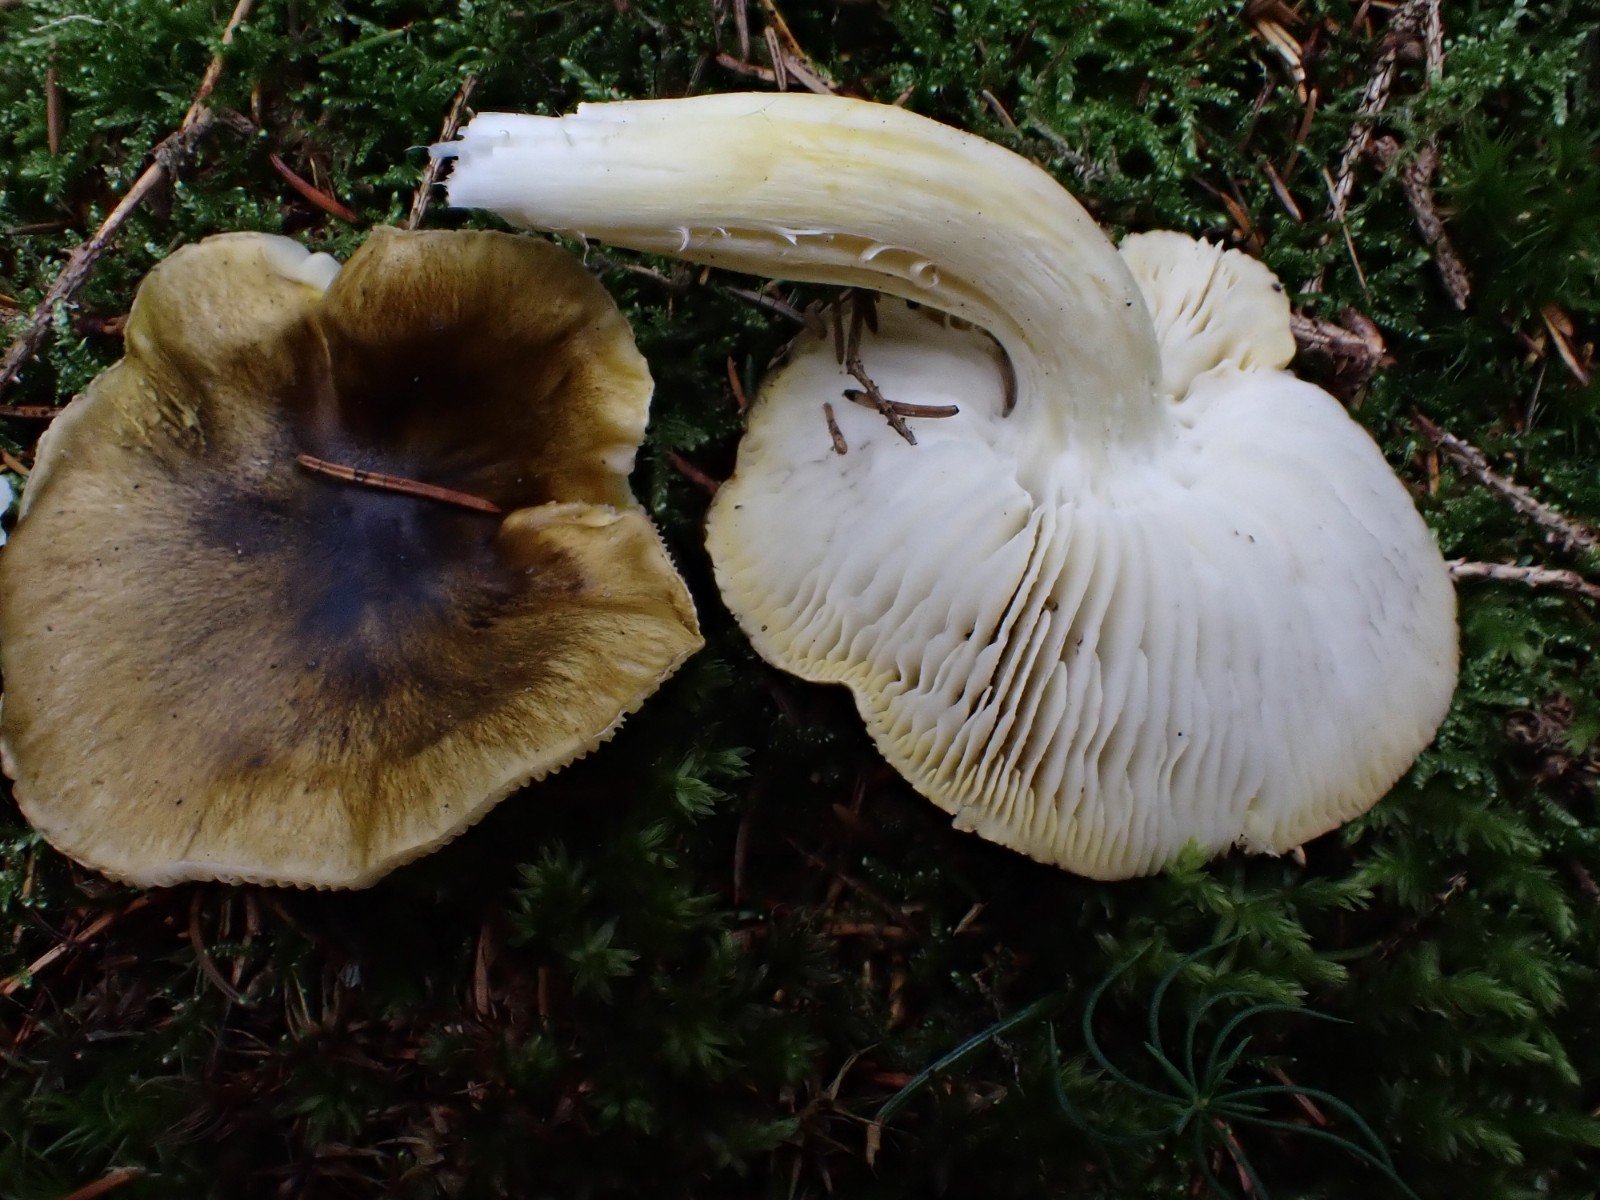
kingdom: Fungi
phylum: Basidiomycota
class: Agaricomycetes
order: Agaricales
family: Tricholomataceae
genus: Tricholoma
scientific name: Tricholoma viridilutescens
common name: sortøjet ridderhat
